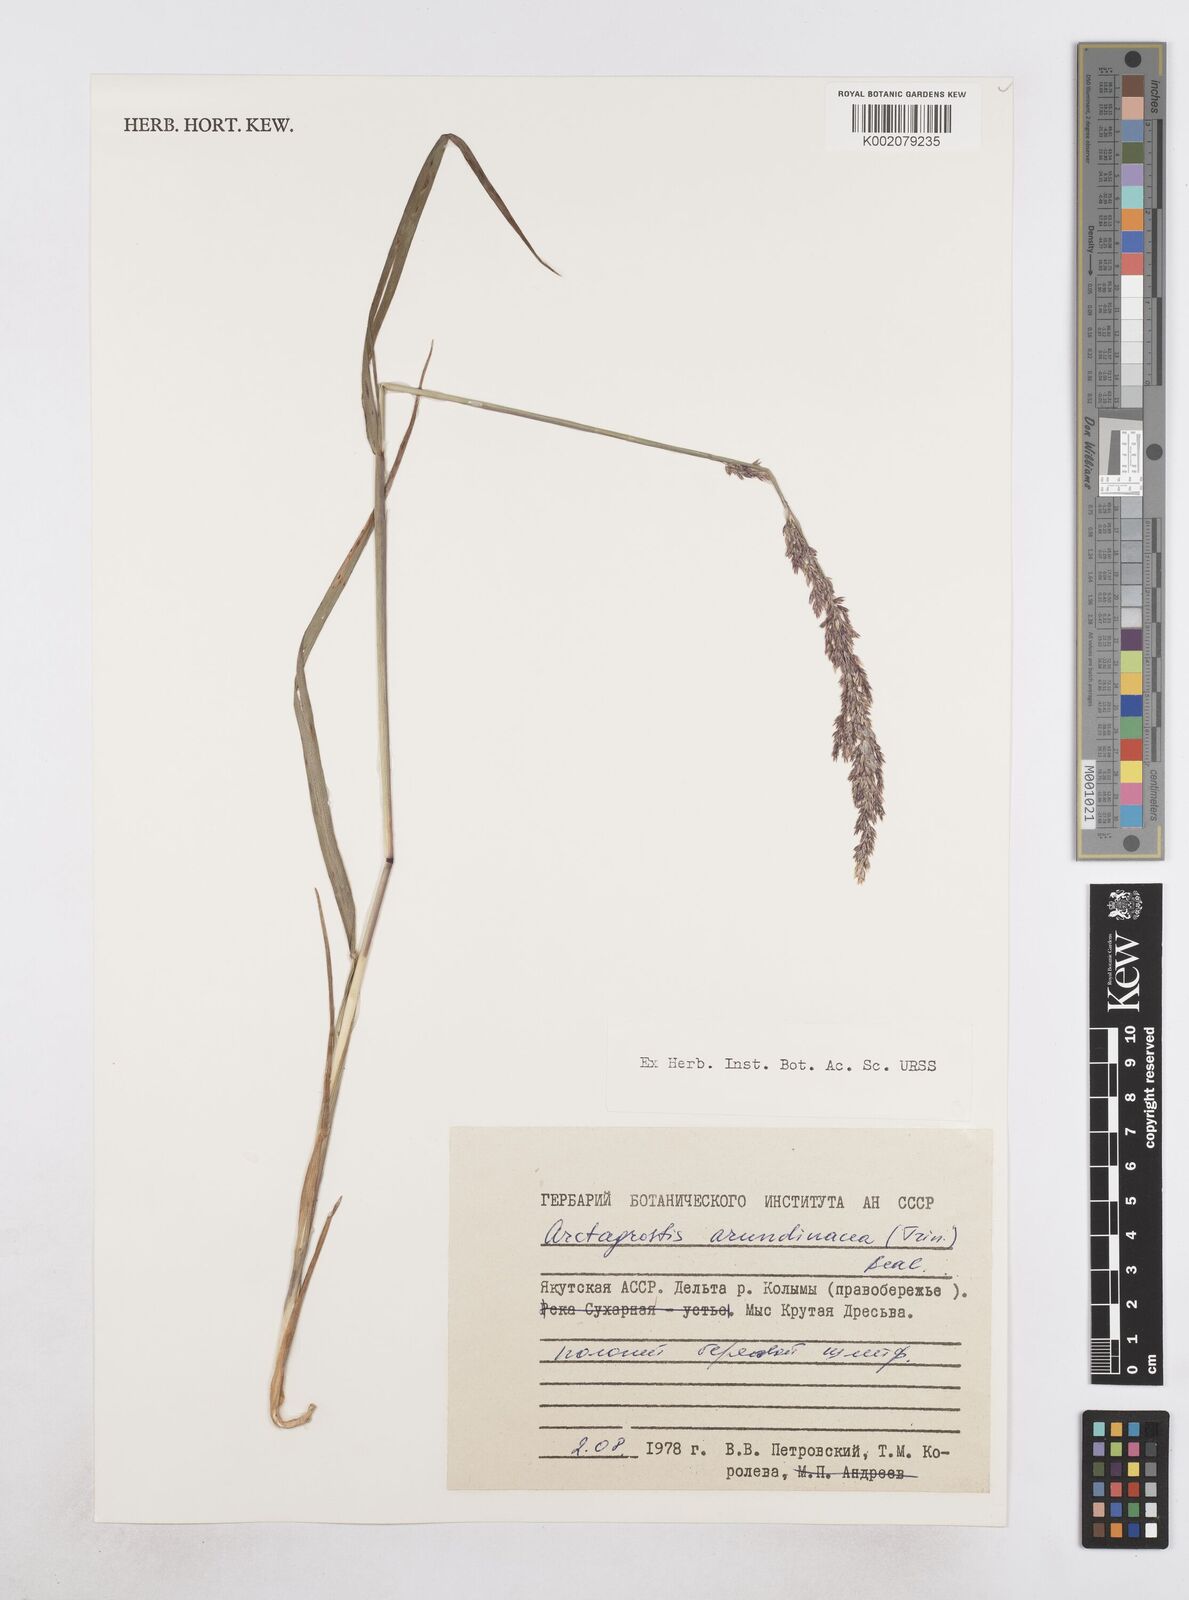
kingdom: Plantae
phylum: Tracheophyta
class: Liliopsida
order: Poales
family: Poaceae
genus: Arctagrostis
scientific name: Arctagrostis latifolia
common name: Arctic grass
